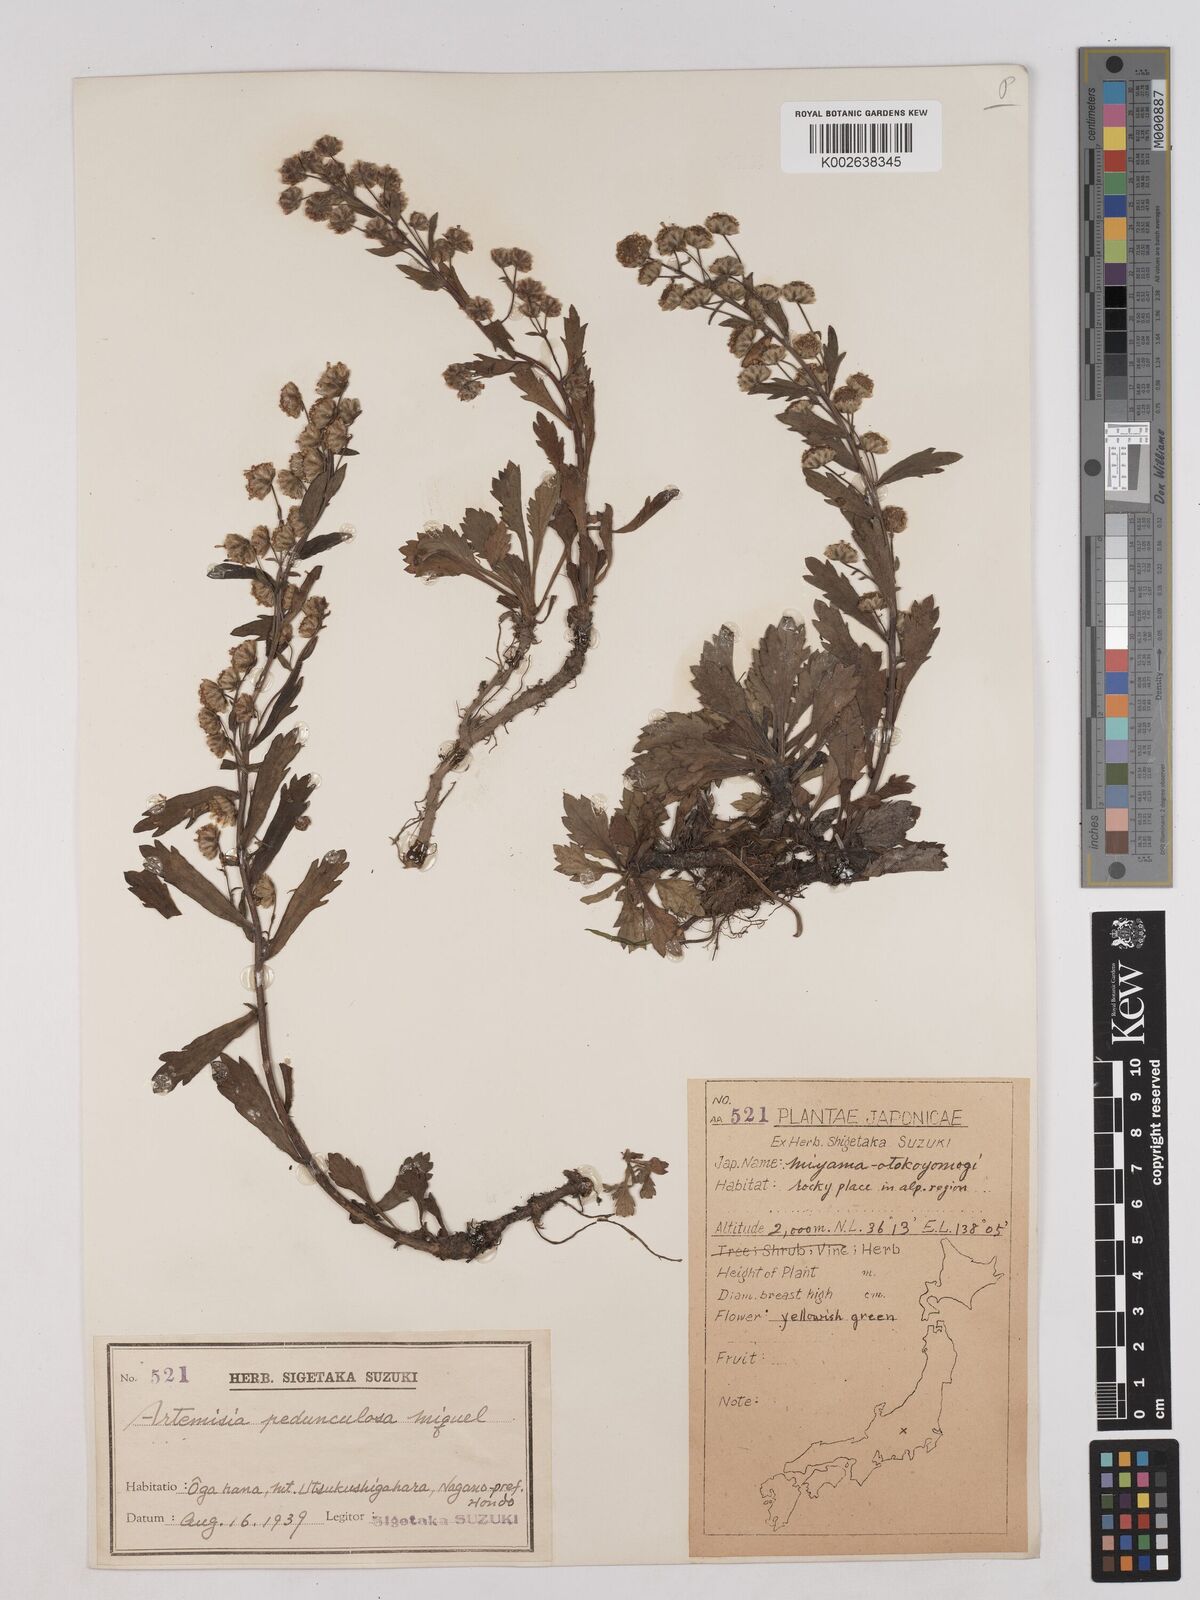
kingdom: Plantae
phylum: Tracheophyta
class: Magnoliopsida
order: Asterales
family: Asteraceae
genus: Artemisia
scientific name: Artemisia pedunculosa
